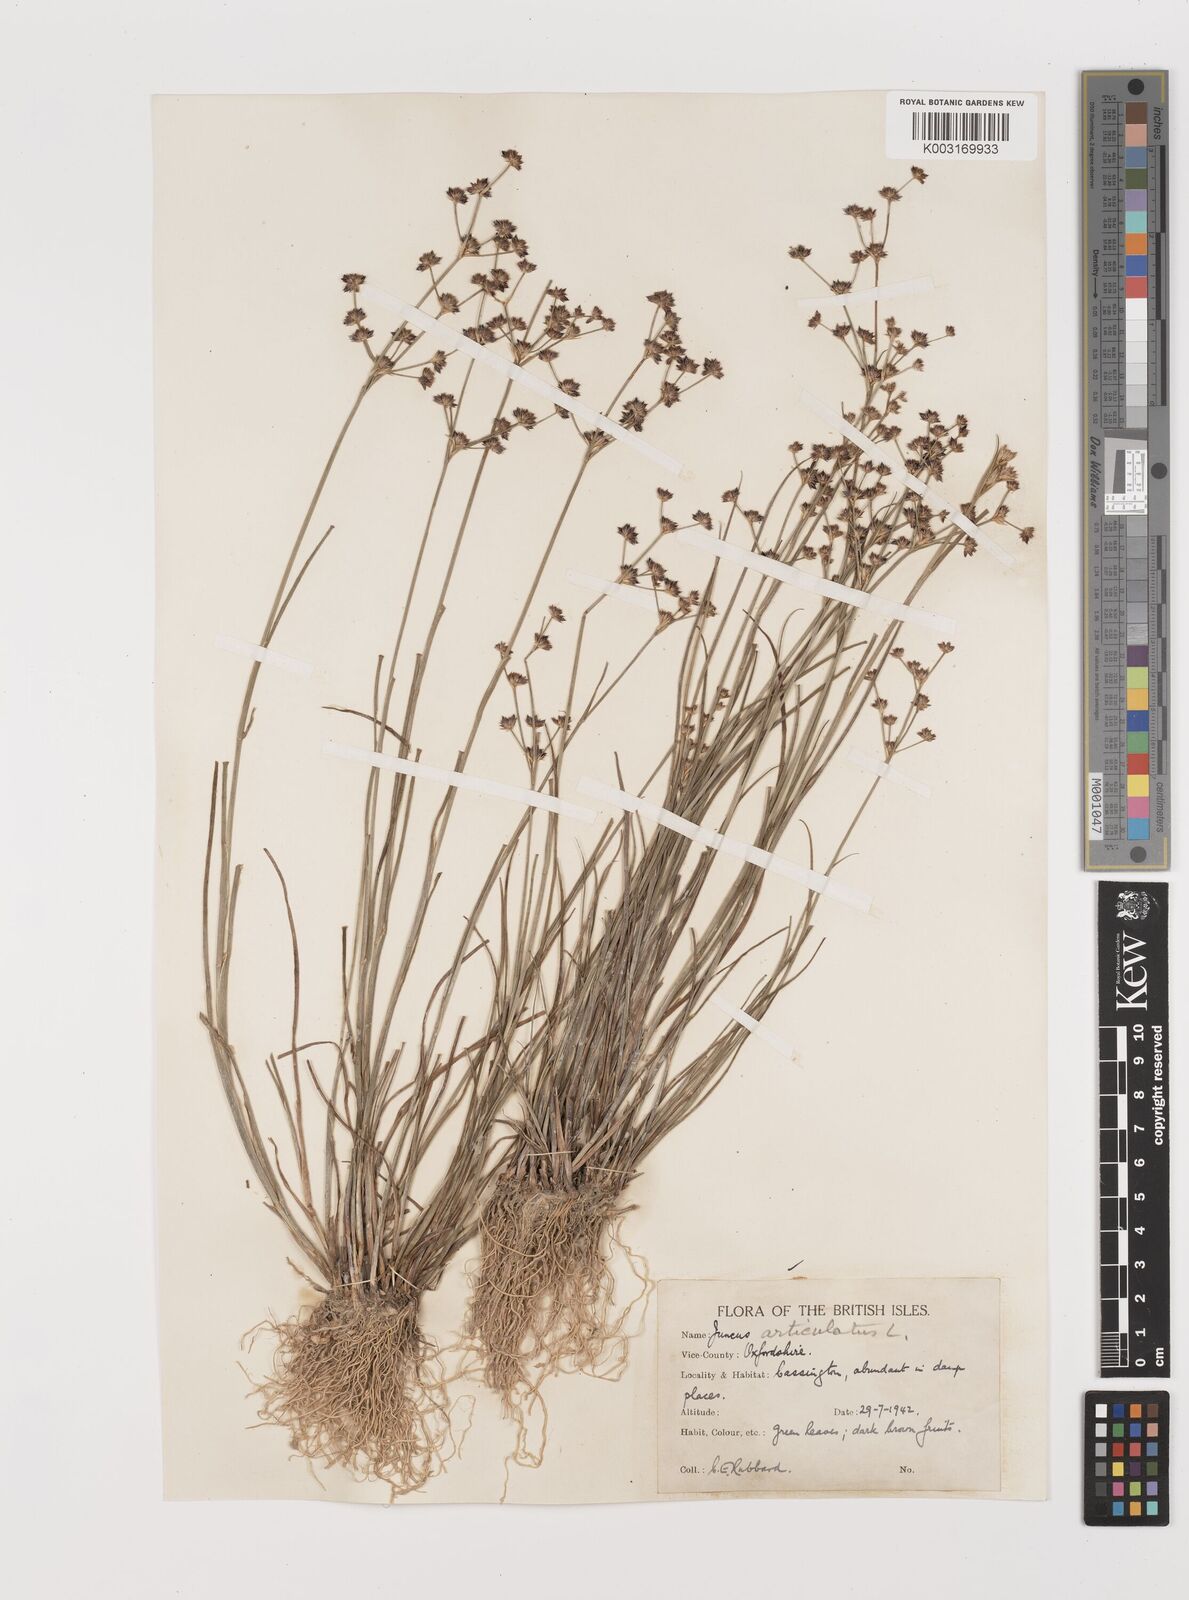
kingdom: Plantae
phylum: Tracheophyta
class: Liliopsida
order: Poales
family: Juncaceae
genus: Juncus
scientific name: Juncus articulatus
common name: Jointed rush
